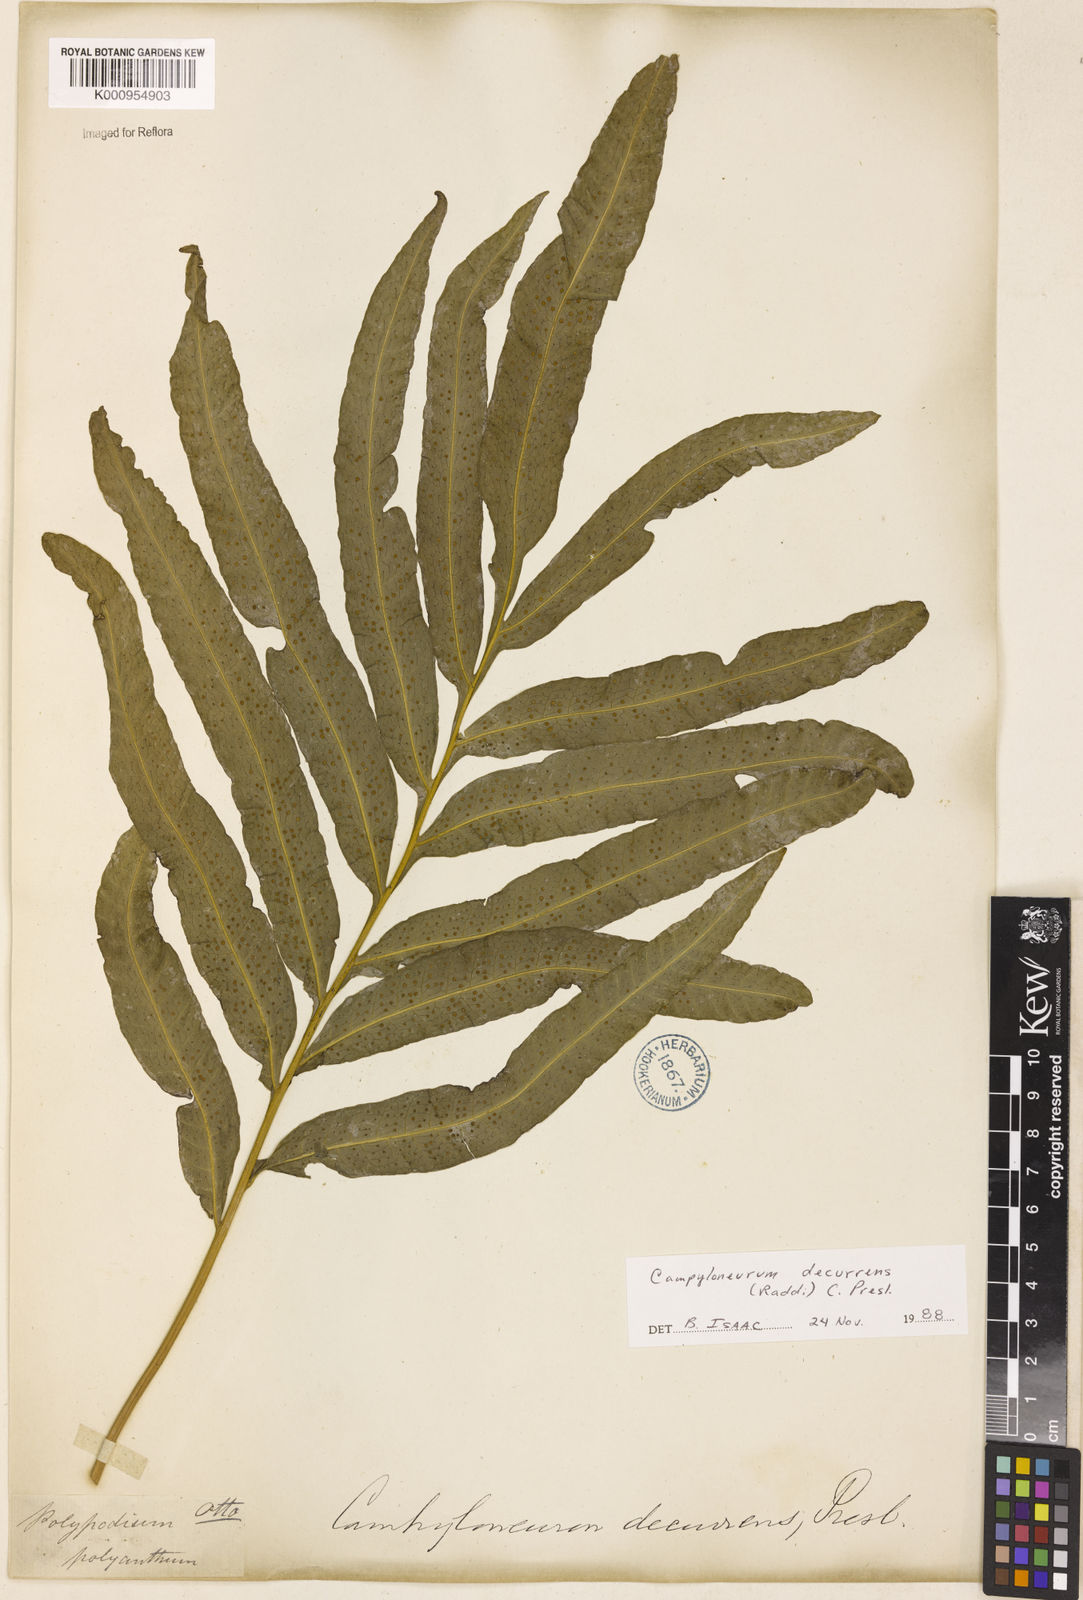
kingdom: Plantae
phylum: Tracheophyta
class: Polypodiopsida
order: Polypodiales
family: Polypodiaceae
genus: Campyloneurum
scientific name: Campyloneurum decurrens
